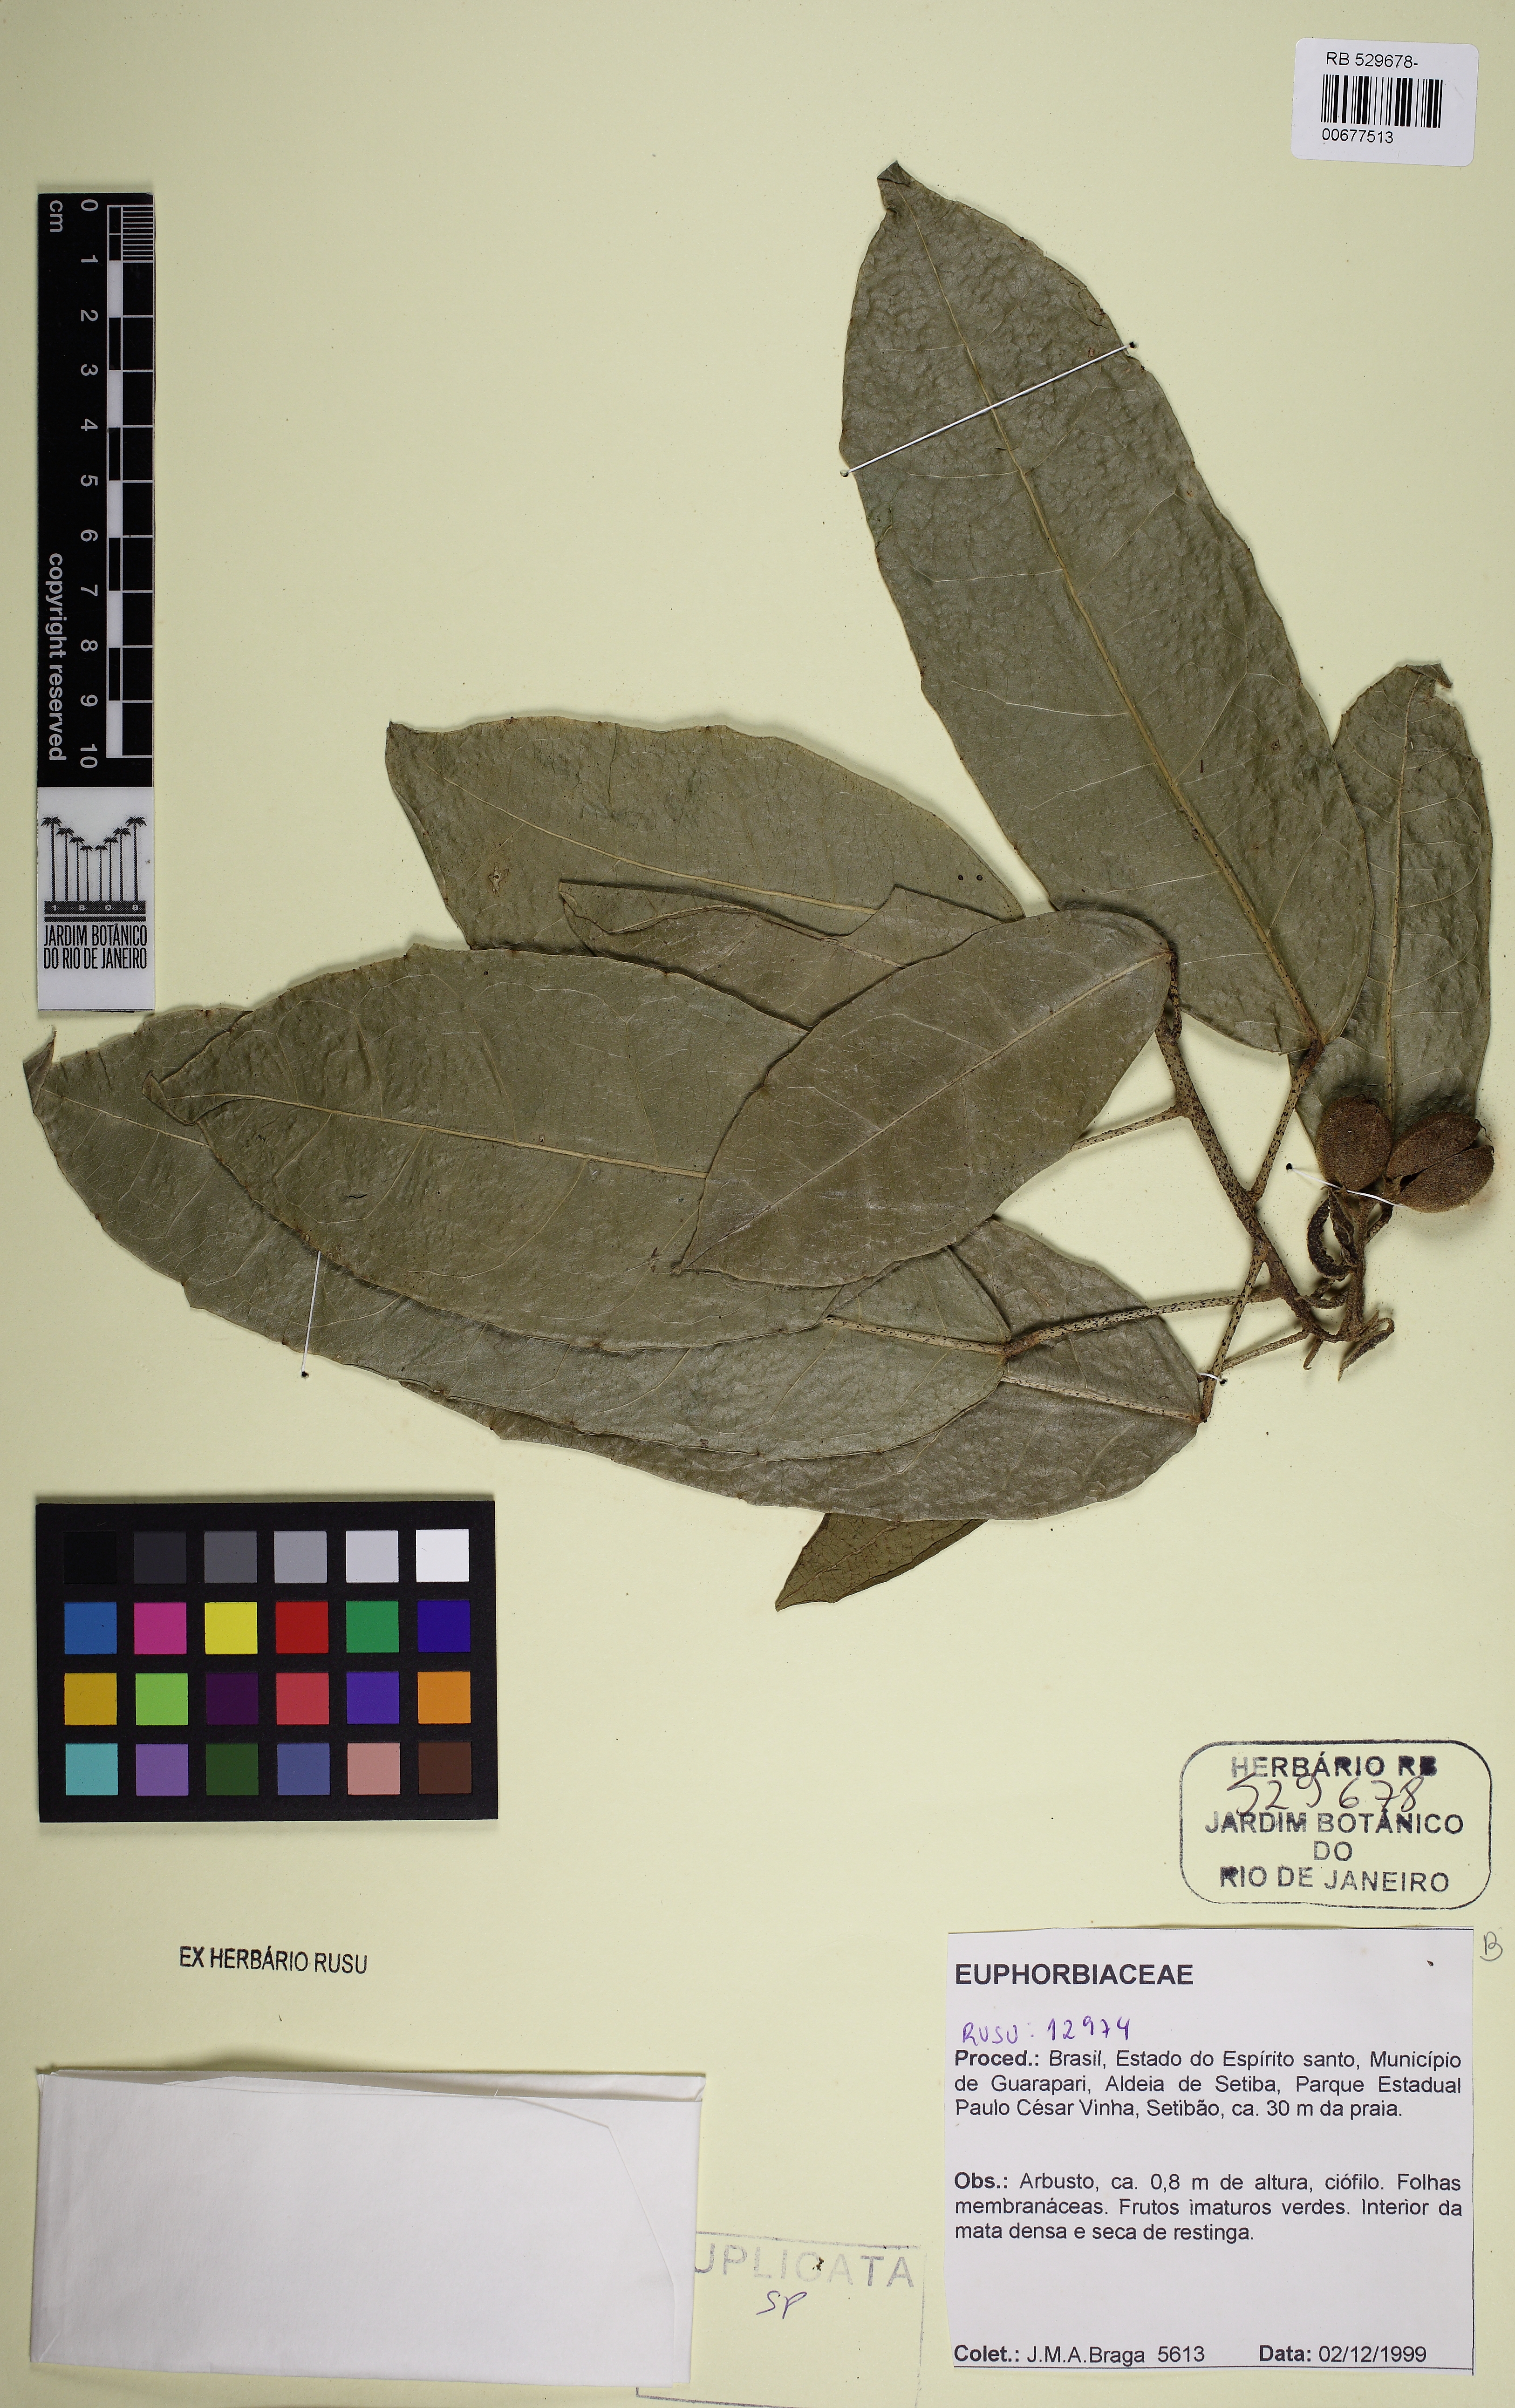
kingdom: Plantae
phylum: Tracheophyta
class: Magnoliopsida
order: Malpighiales
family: Euphorbiaceae
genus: Croton
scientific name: Croton sapiifolius
